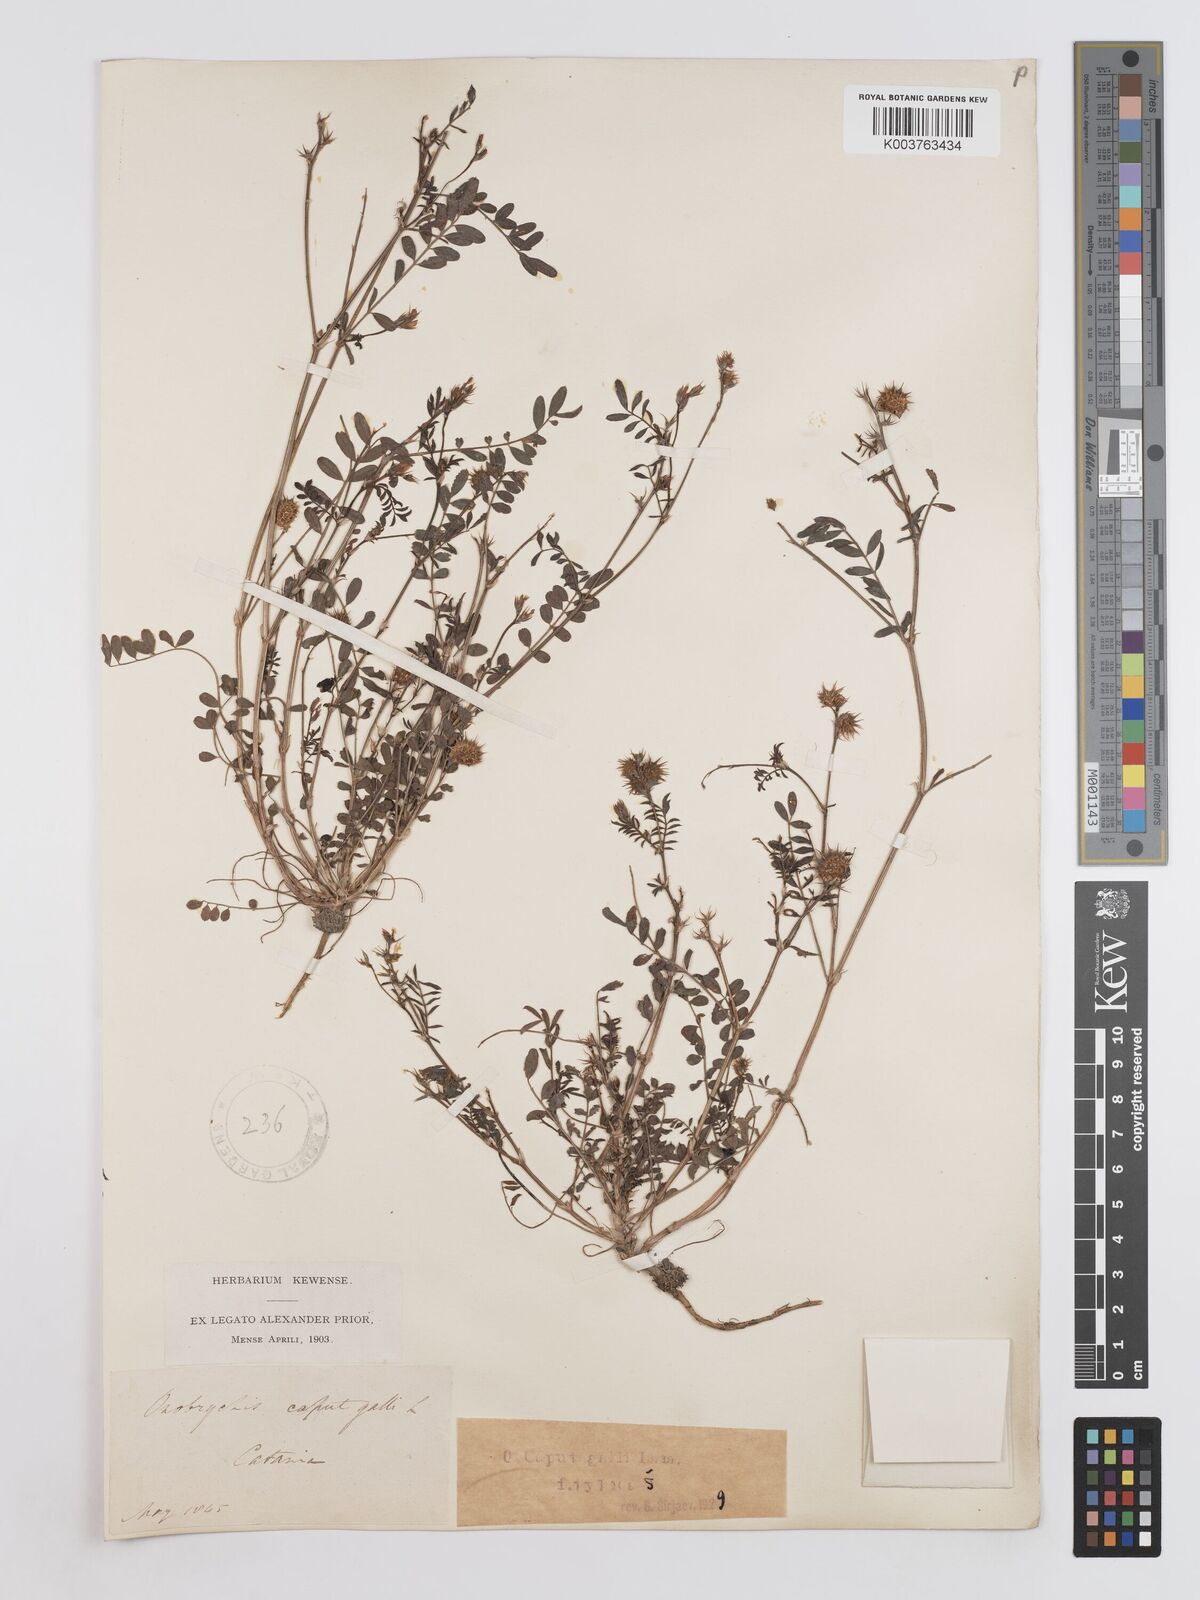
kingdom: Plantae
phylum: Tracheophyta
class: Magnoliopsida
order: Fabales
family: Fabaceae
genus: Onobrychis
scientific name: Onobrychis caput-galli
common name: Cockscomb sainfoin
